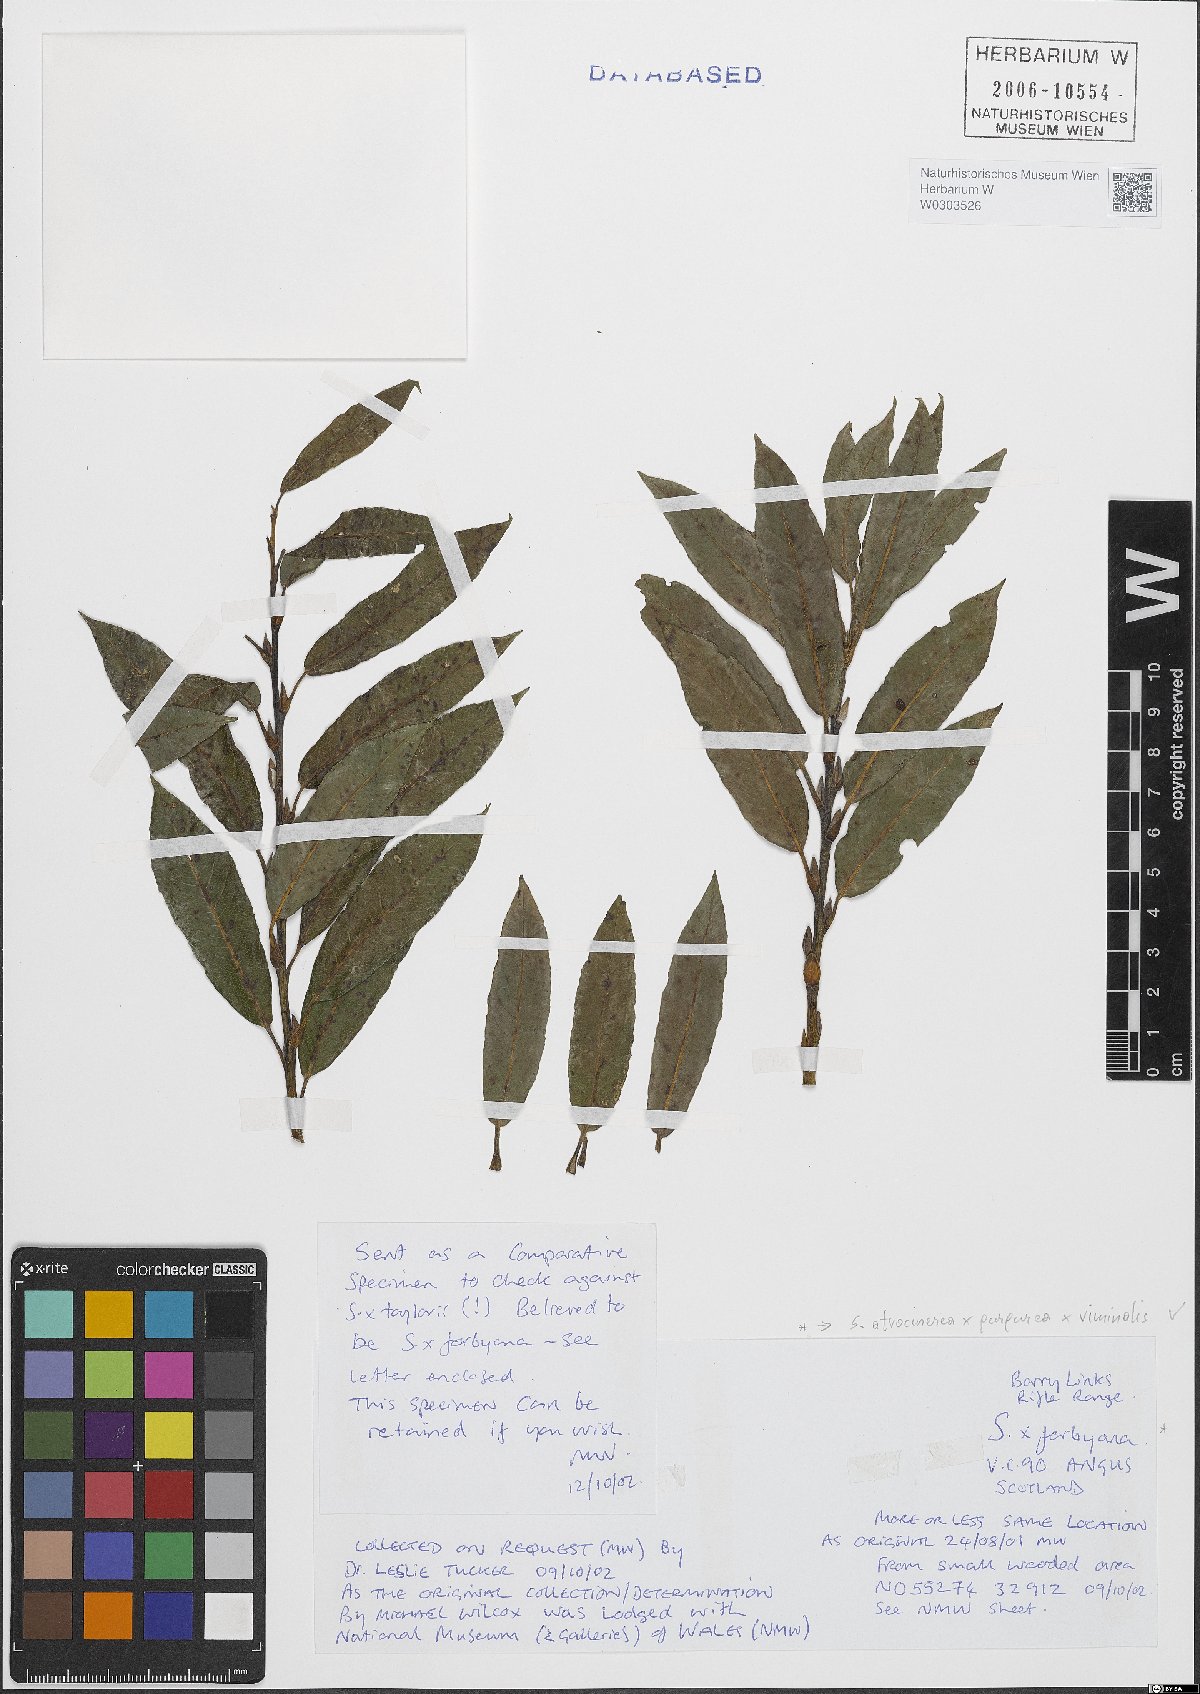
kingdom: Plantae
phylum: Tracheophyta
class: Magnoliopsida
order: Malpighiales
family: Salicaceae
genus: Salix
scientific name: Salix
